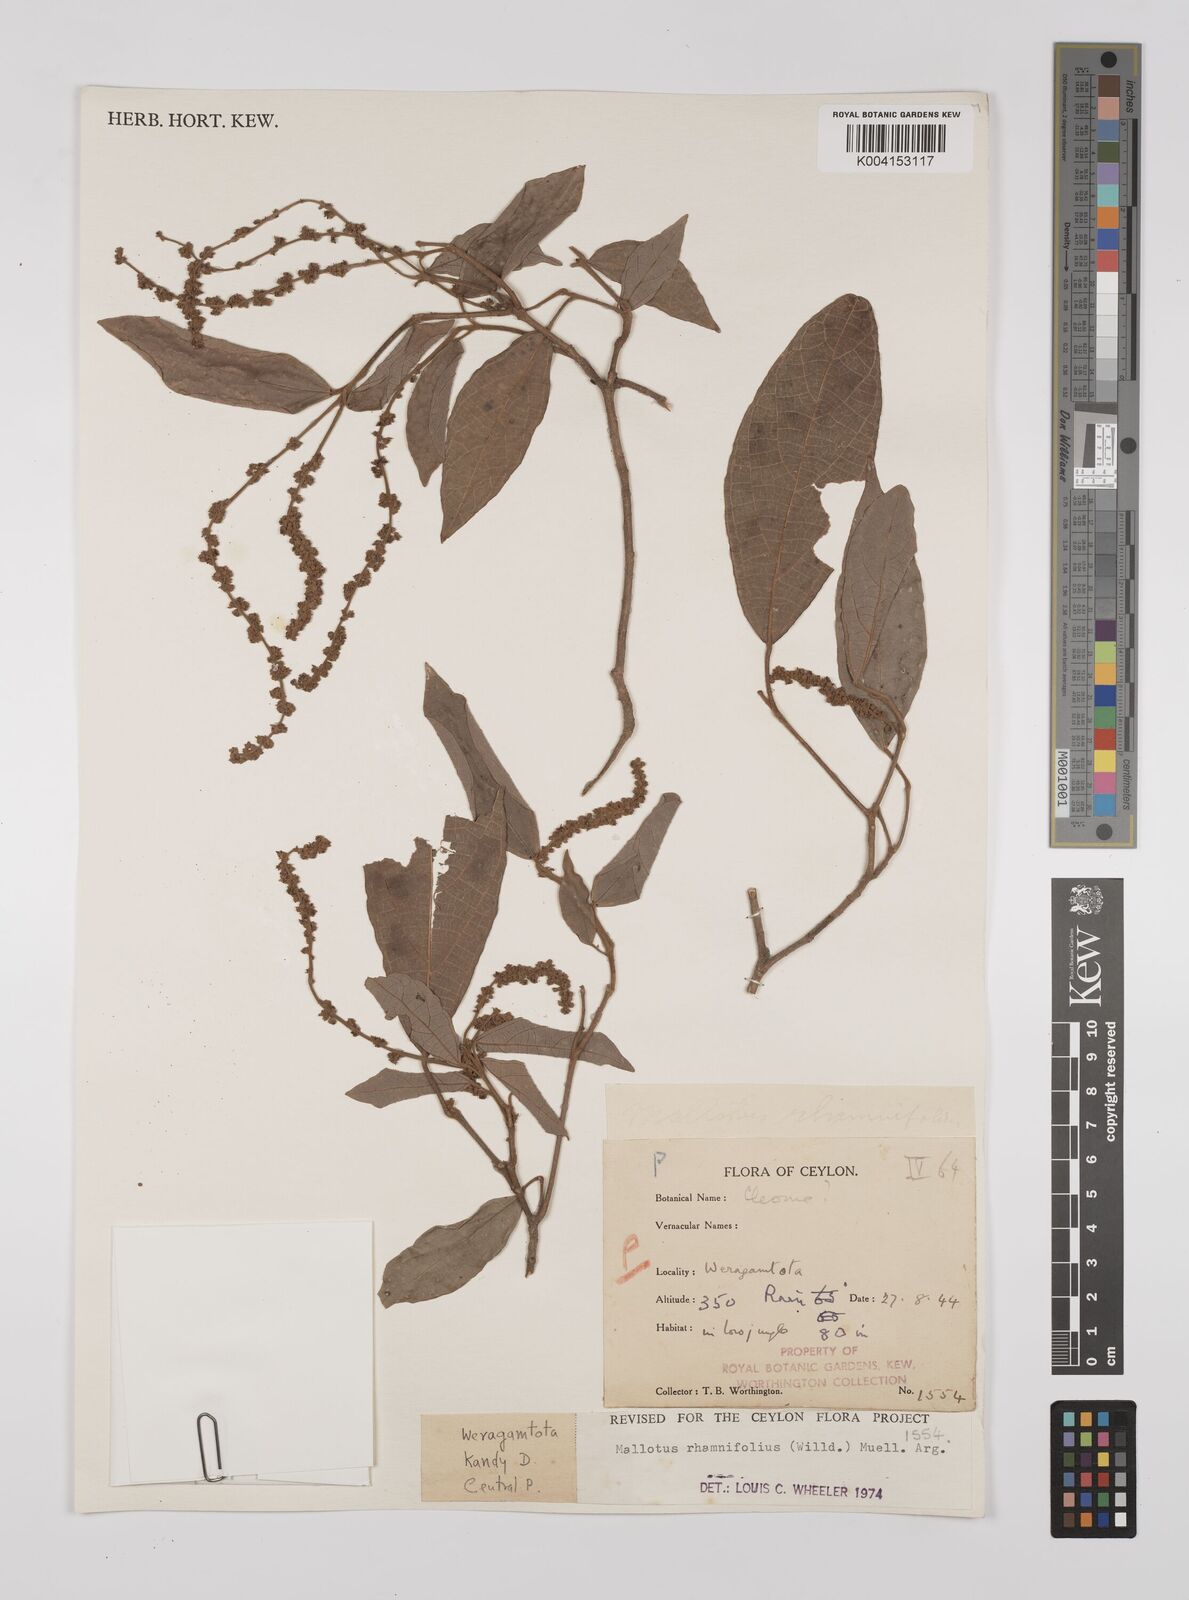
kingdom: Plantae
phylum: Tracheophyta
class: Magnoliopsida
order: Malpighiales
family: Euphorbiaceae
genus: Mallotus
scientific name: Mallotus rhamnifolius
